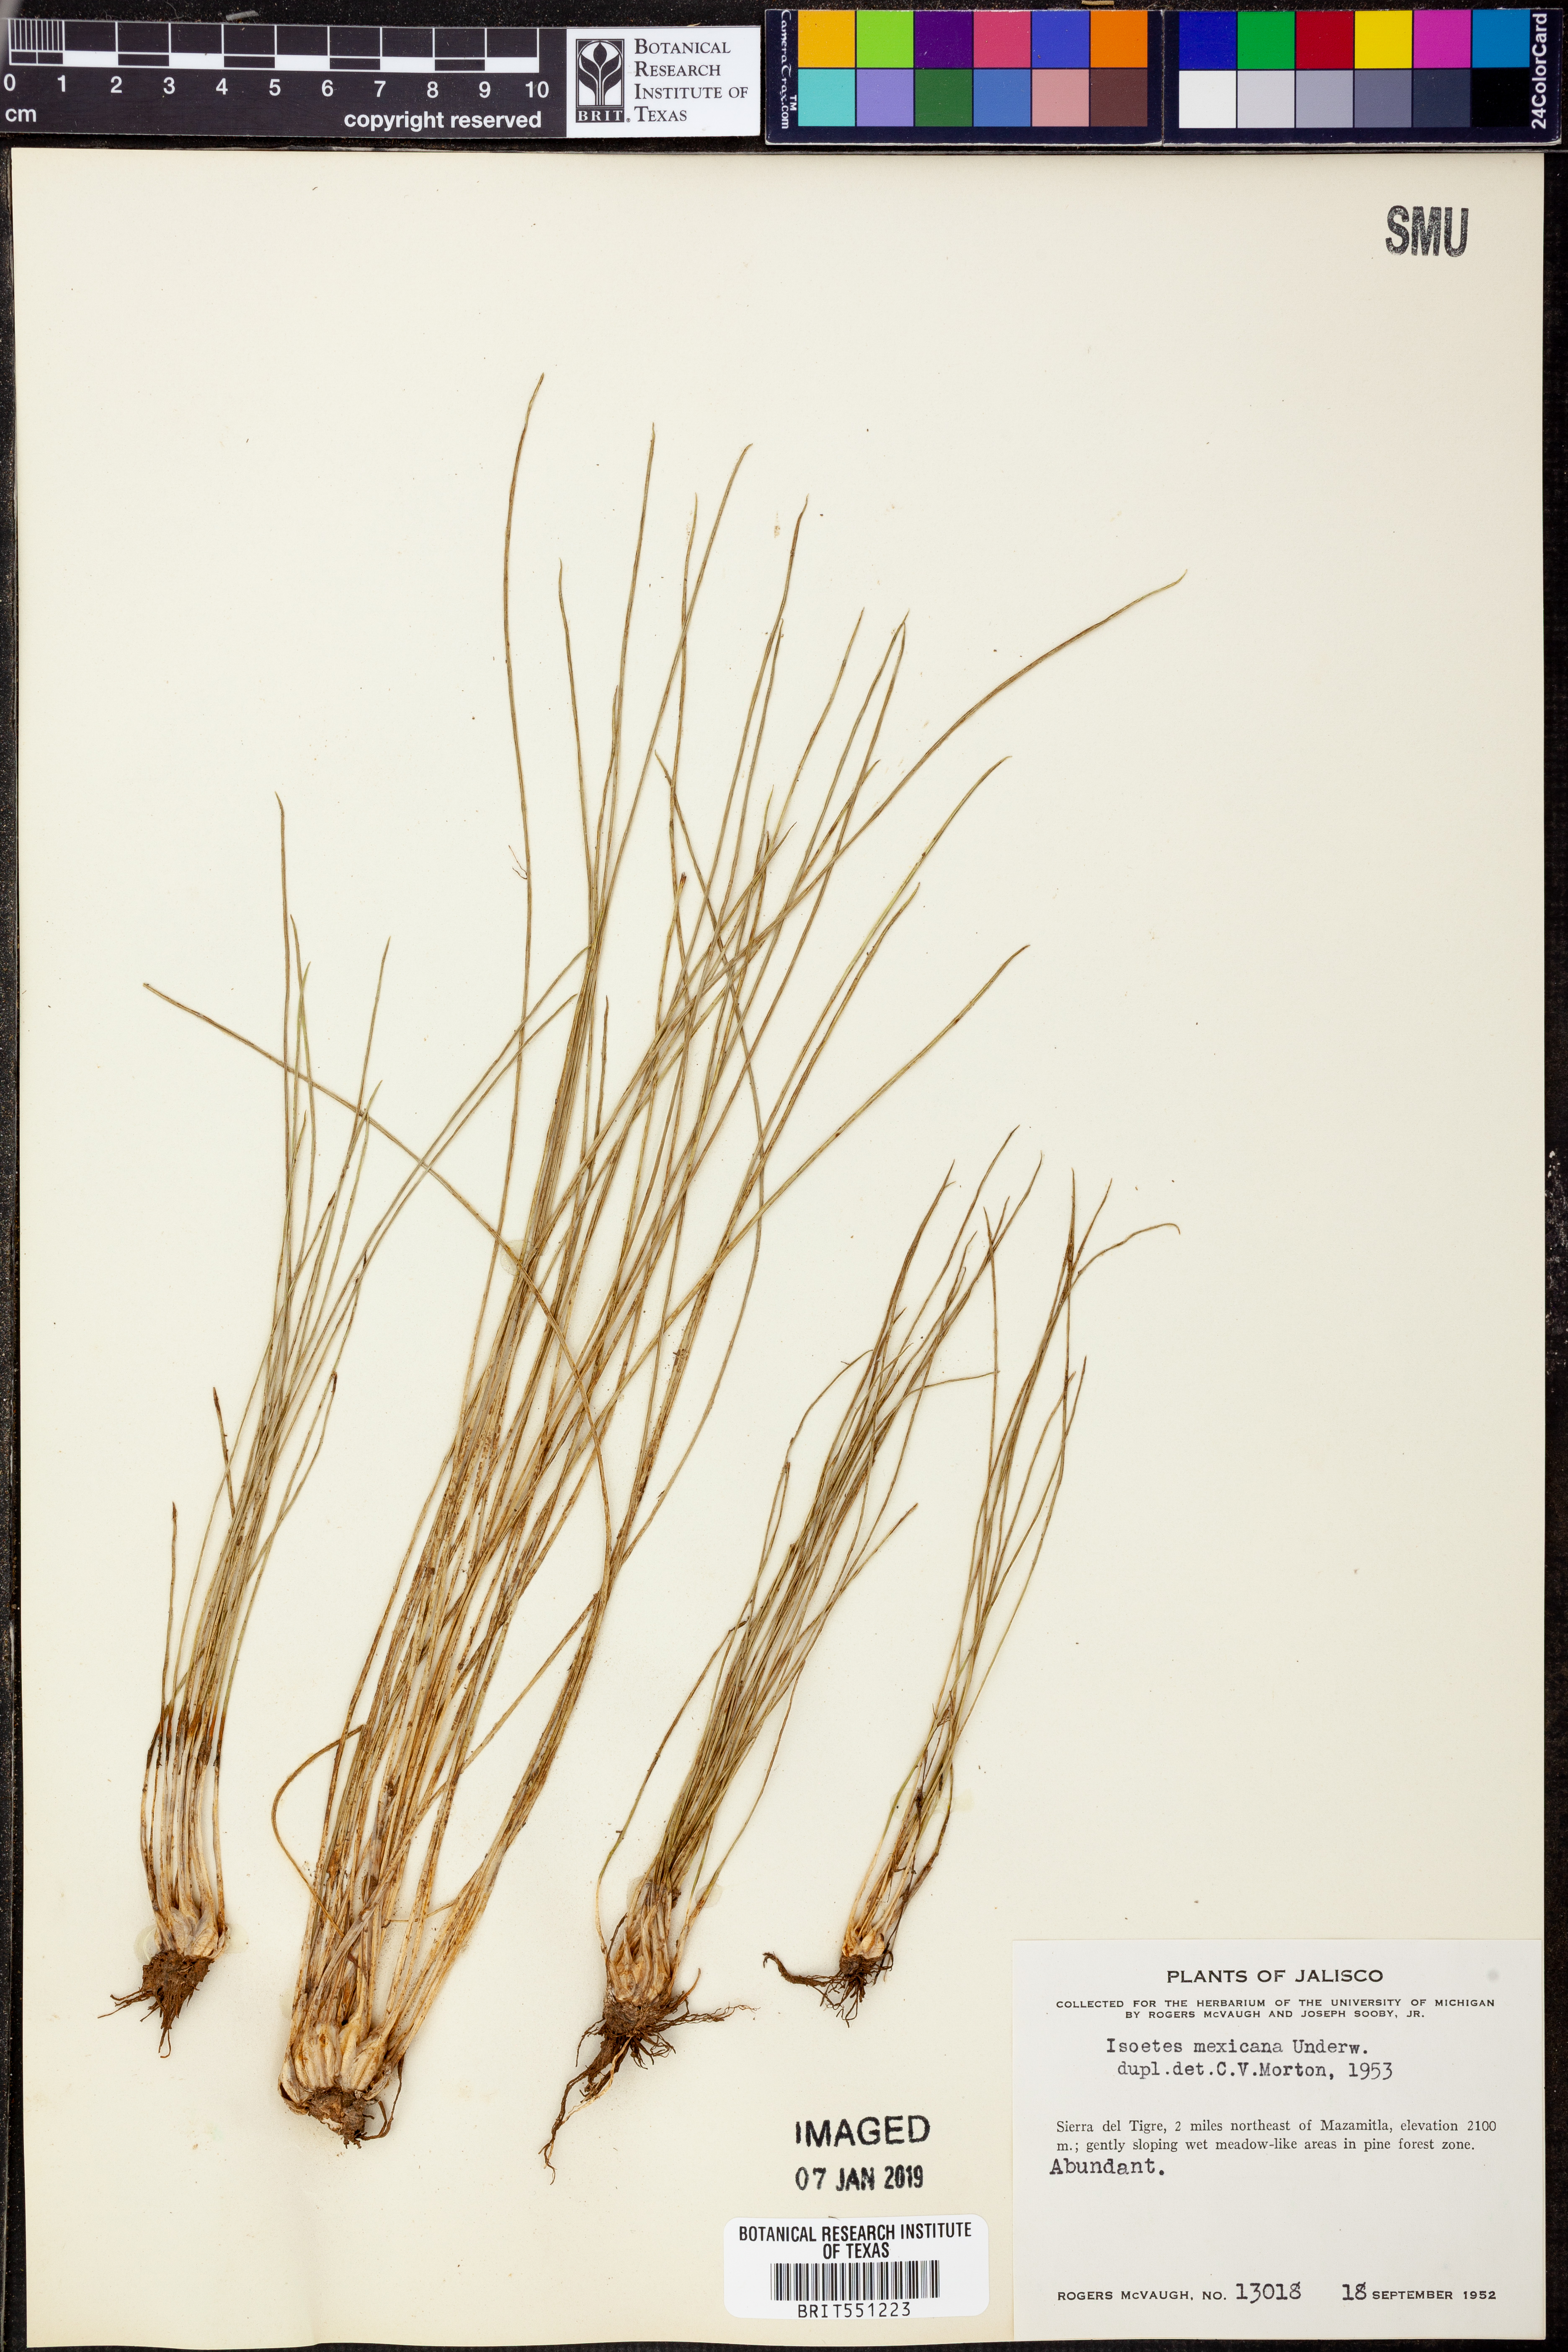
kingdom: Plantae
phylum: Tracheophyta
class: Lycopodiopsida
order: Isoetales
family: Isoetaceae
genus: Isoetes
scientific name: Isoetes mexicana
